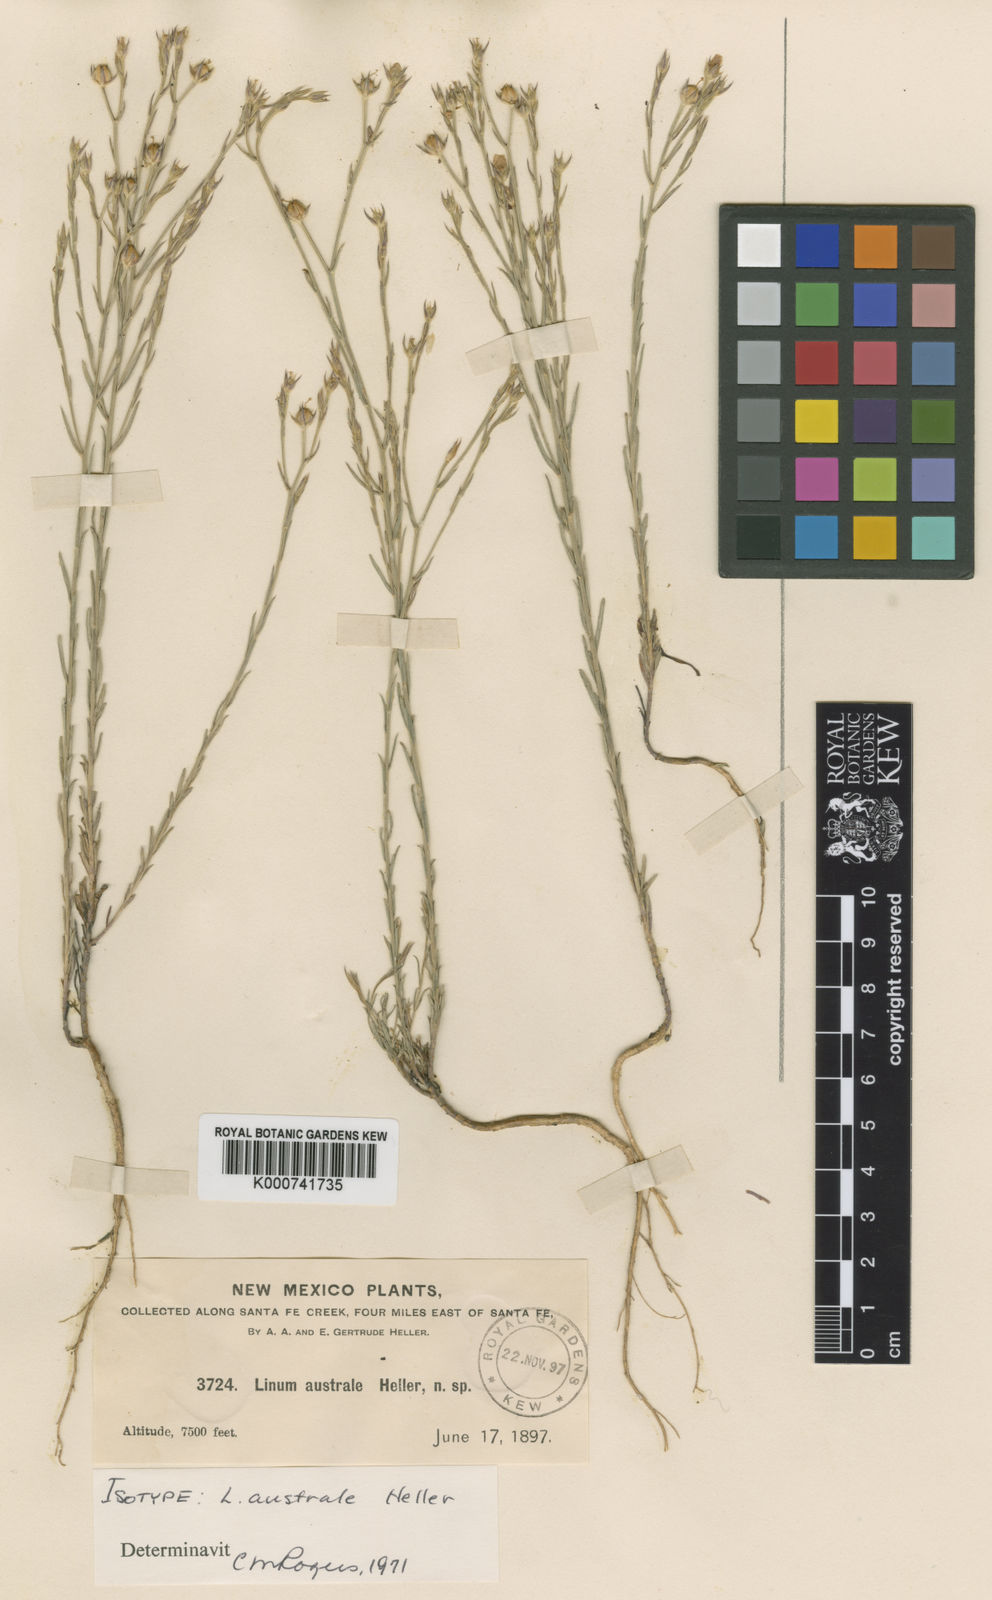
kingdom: Plantae
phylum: Tracheophyta
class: Magnoliopsida
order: Malpighiales
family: Linaceae
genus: Linum
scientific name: Linum australe
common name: Small yellow flax
